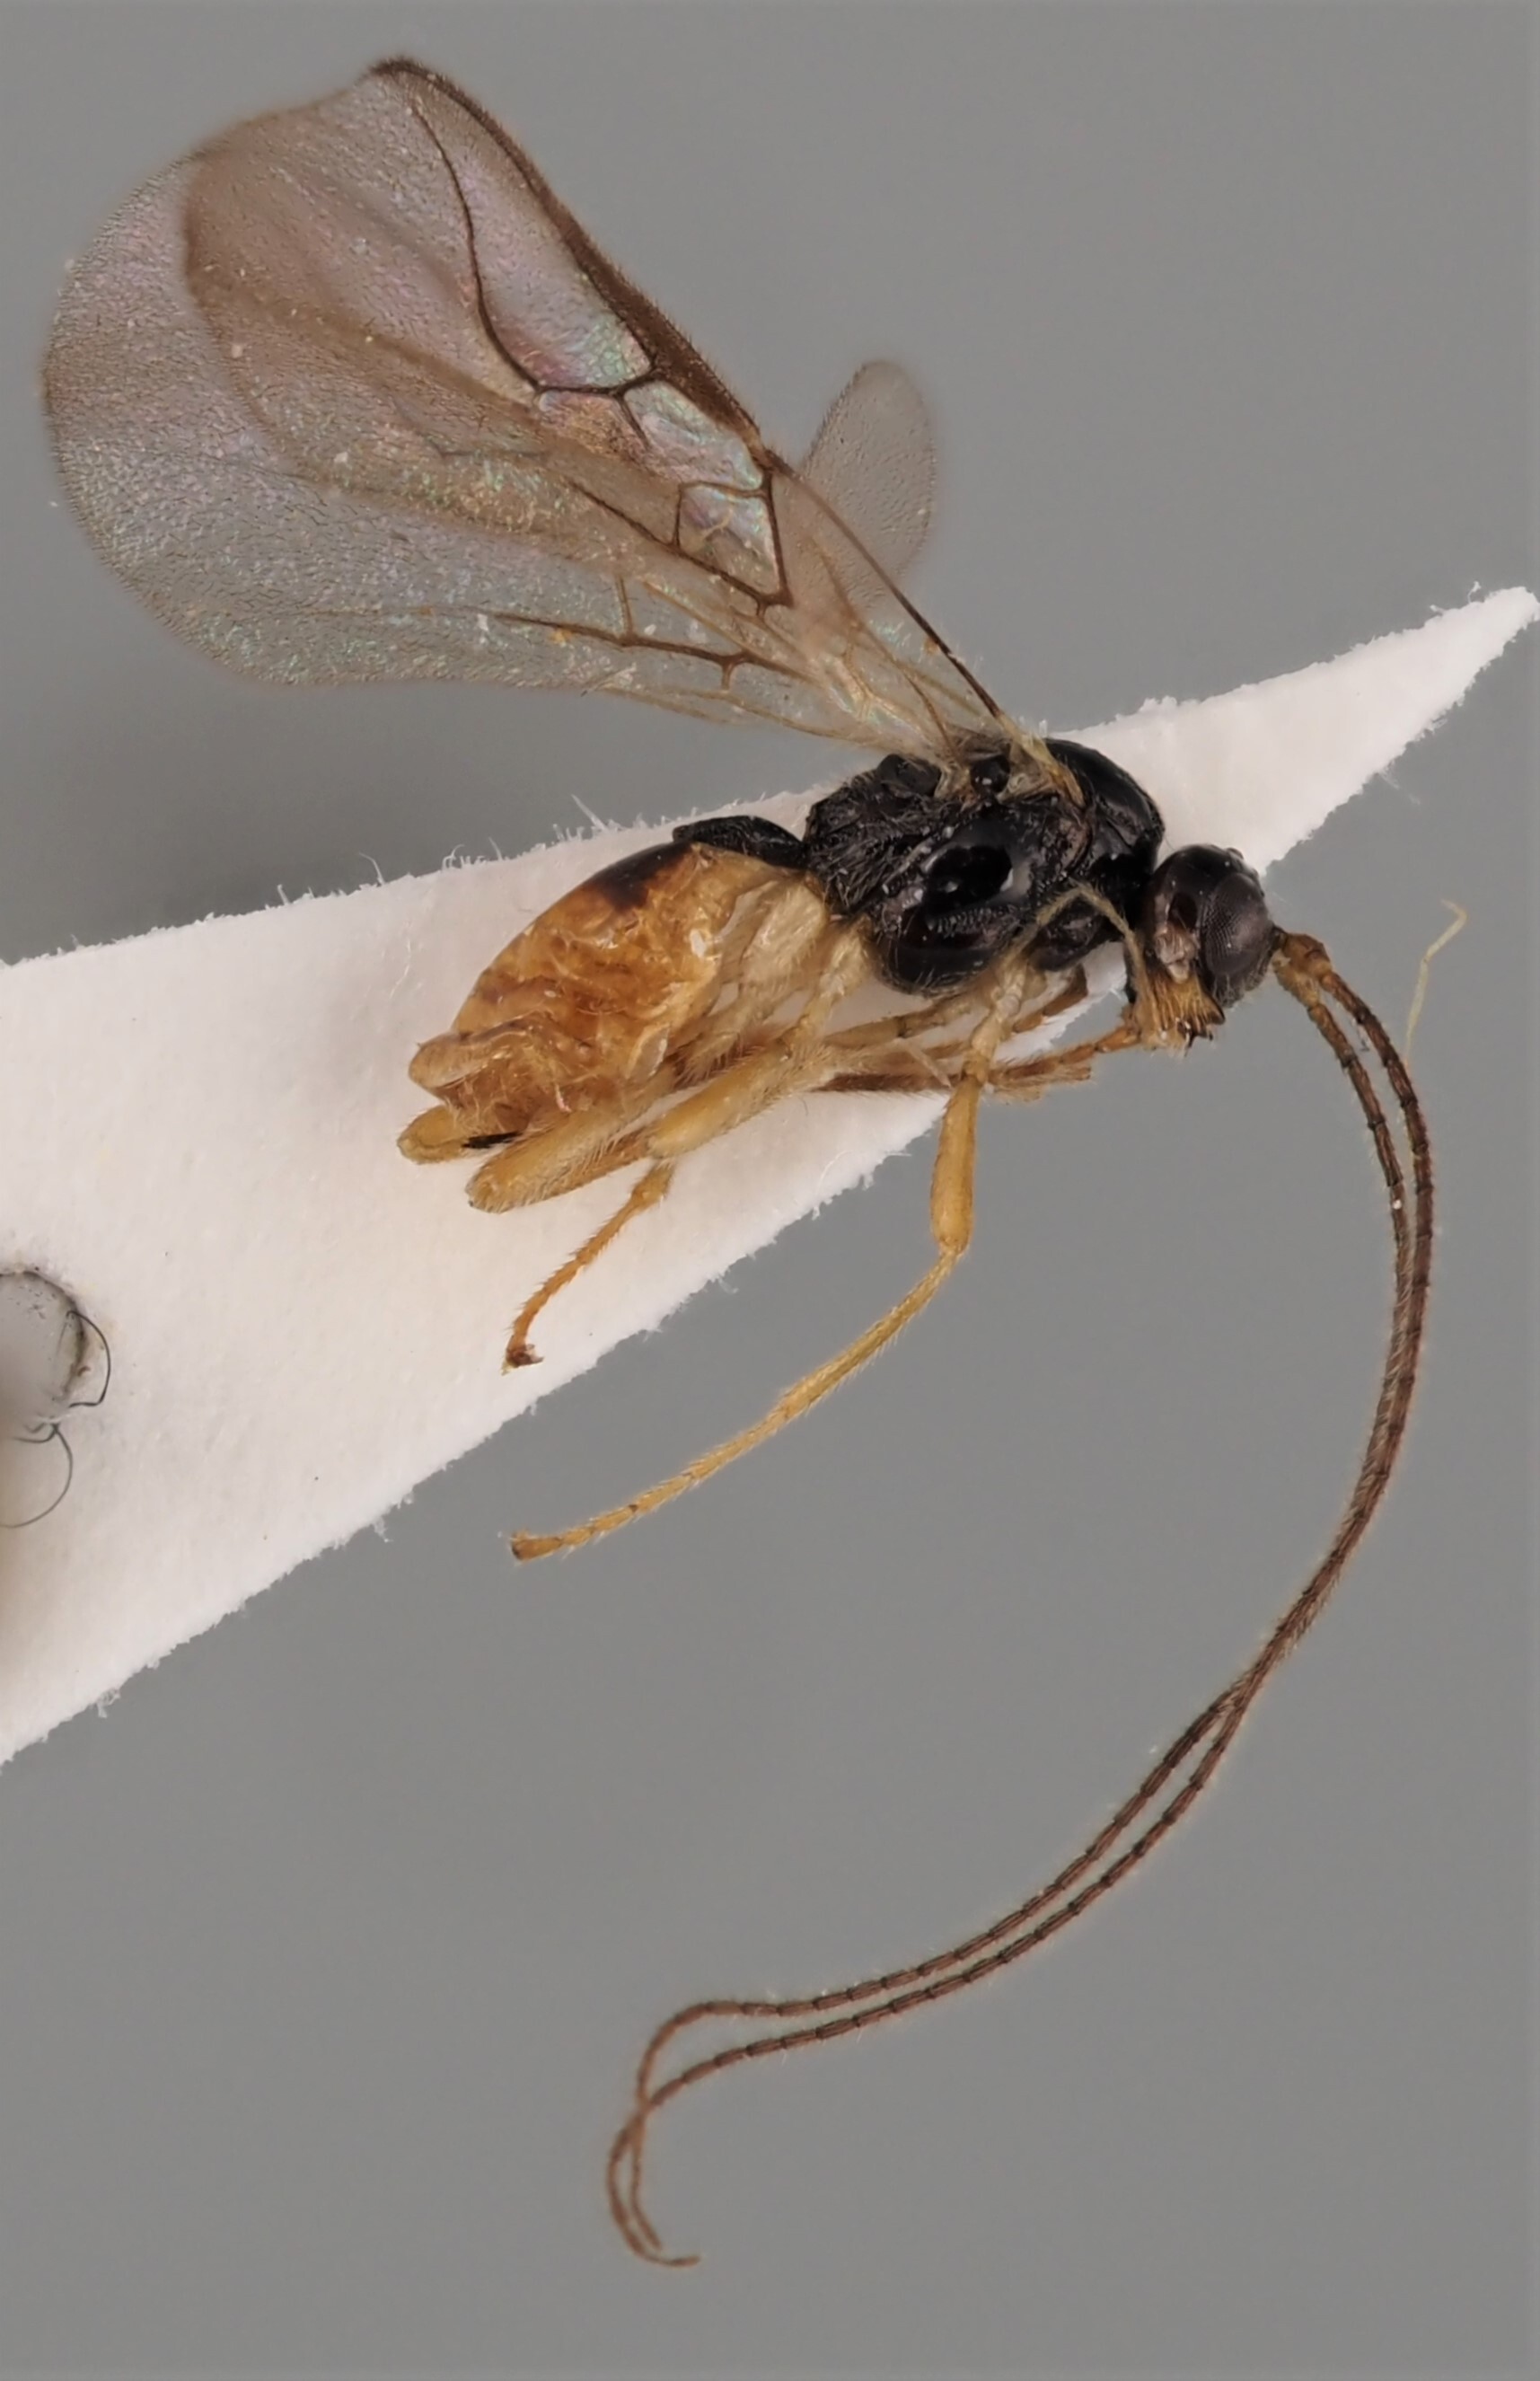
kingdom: Animalia
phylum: Arthropoda
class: Insecta
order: Hymenoptera
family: Braconidae
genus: Dapsilarthra
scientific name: Dapsilarthra dictynna
